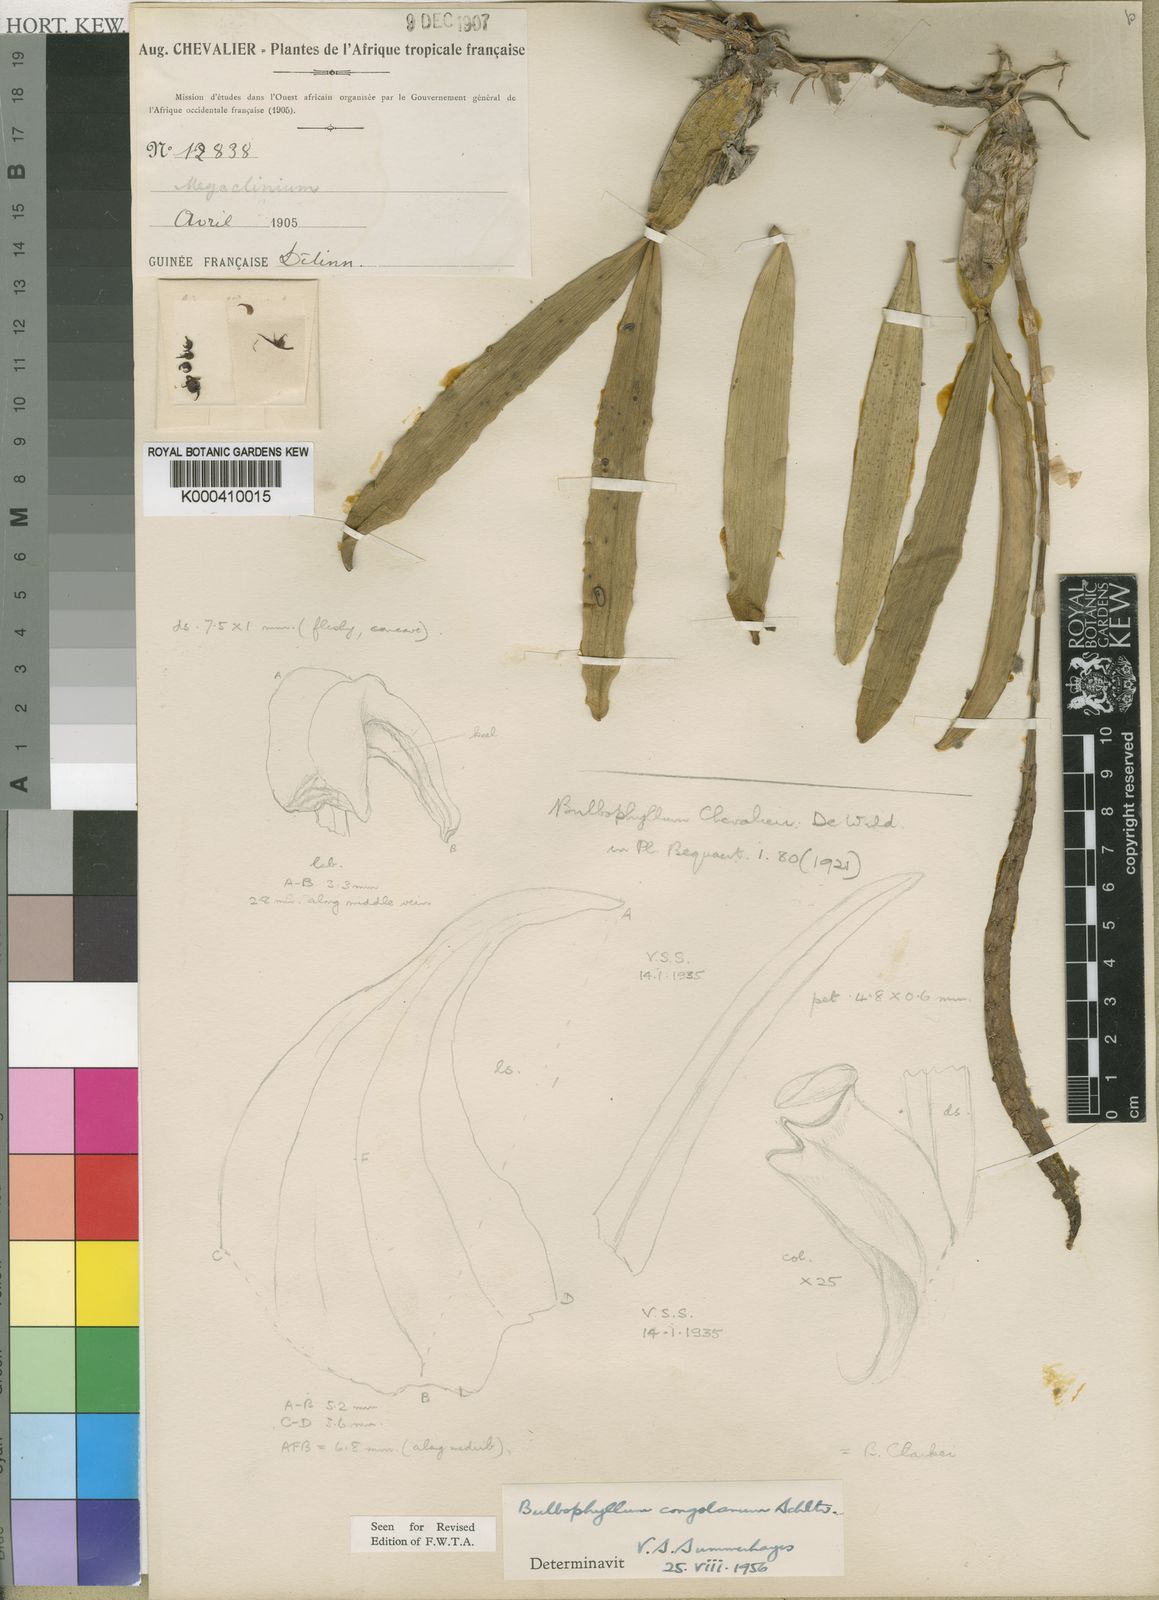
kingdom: Plantae
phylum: Tracheophyta
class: Liliopsida
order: Asparagales
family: Orchidaceae
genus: Bulbophyllum
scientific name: Bulbophyllum scaberulum
